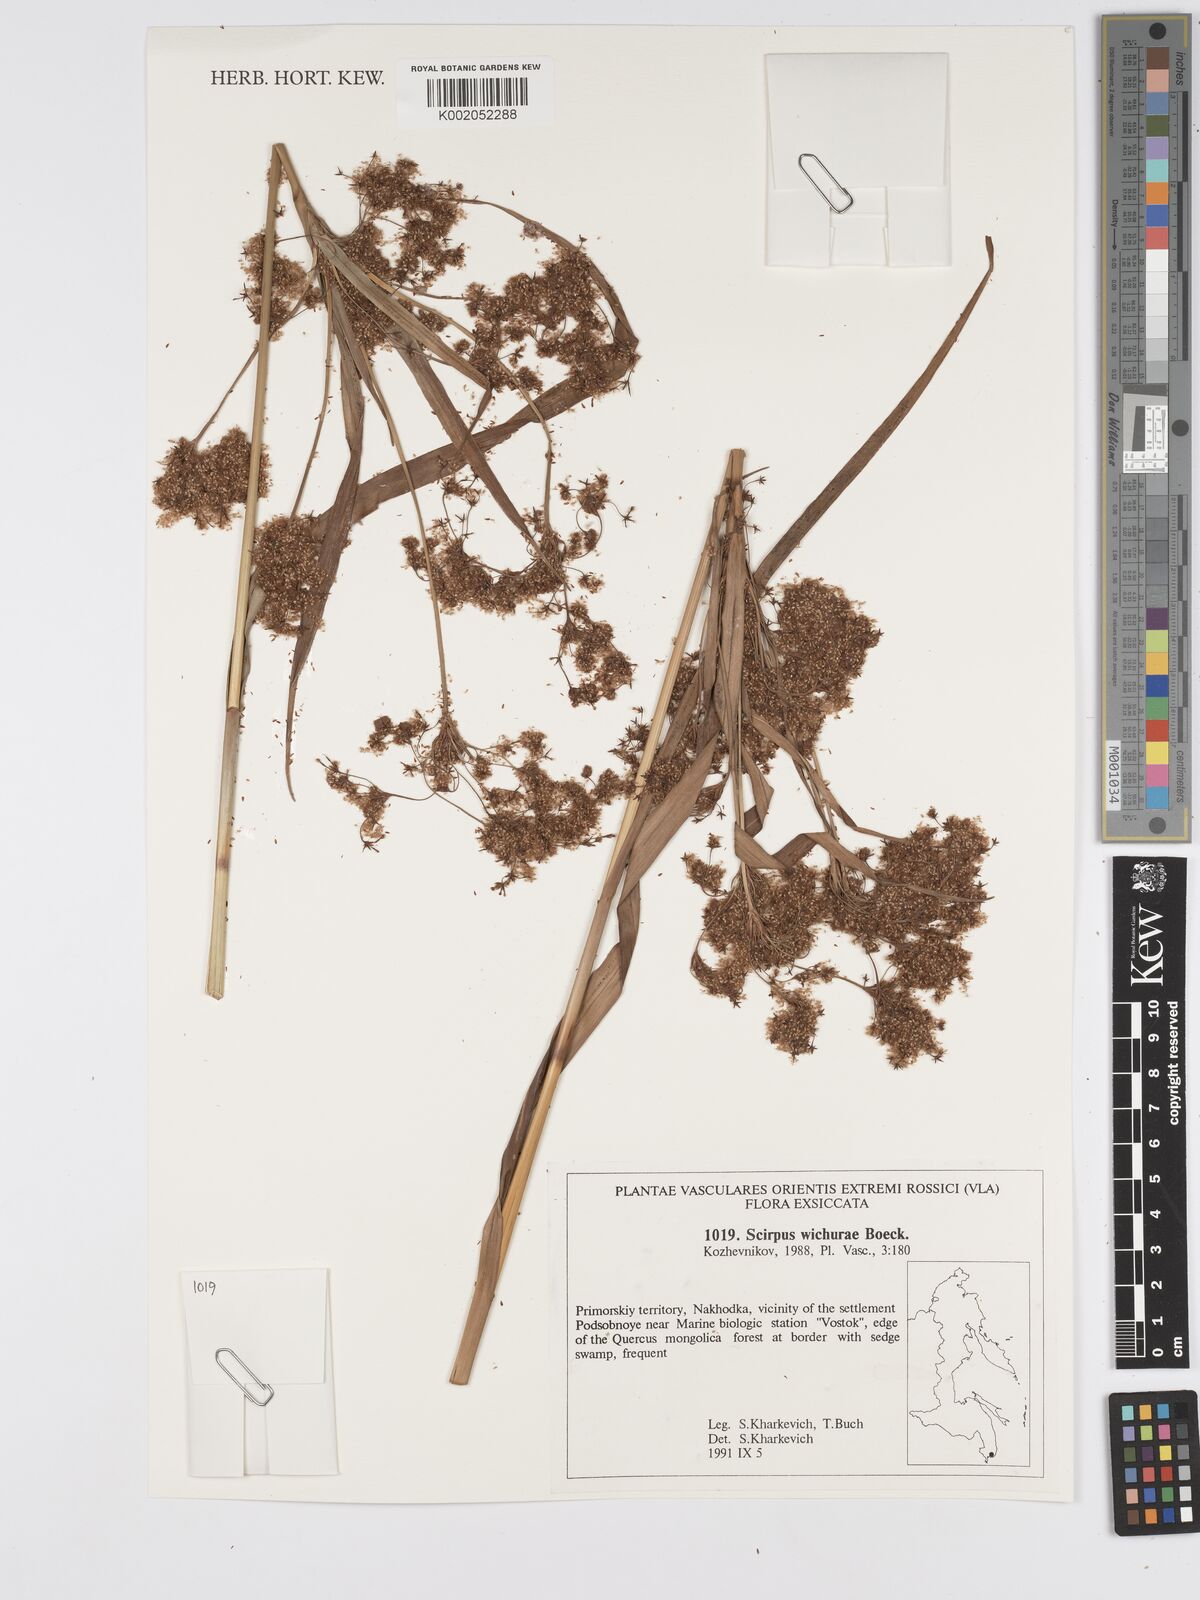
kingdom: Plantae
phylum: Tracheophyta
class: Liliopsida
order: Poales
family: Cyperaceae
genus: Scirpus
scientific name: Scirpus lineatus
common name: Drooping bulrush
